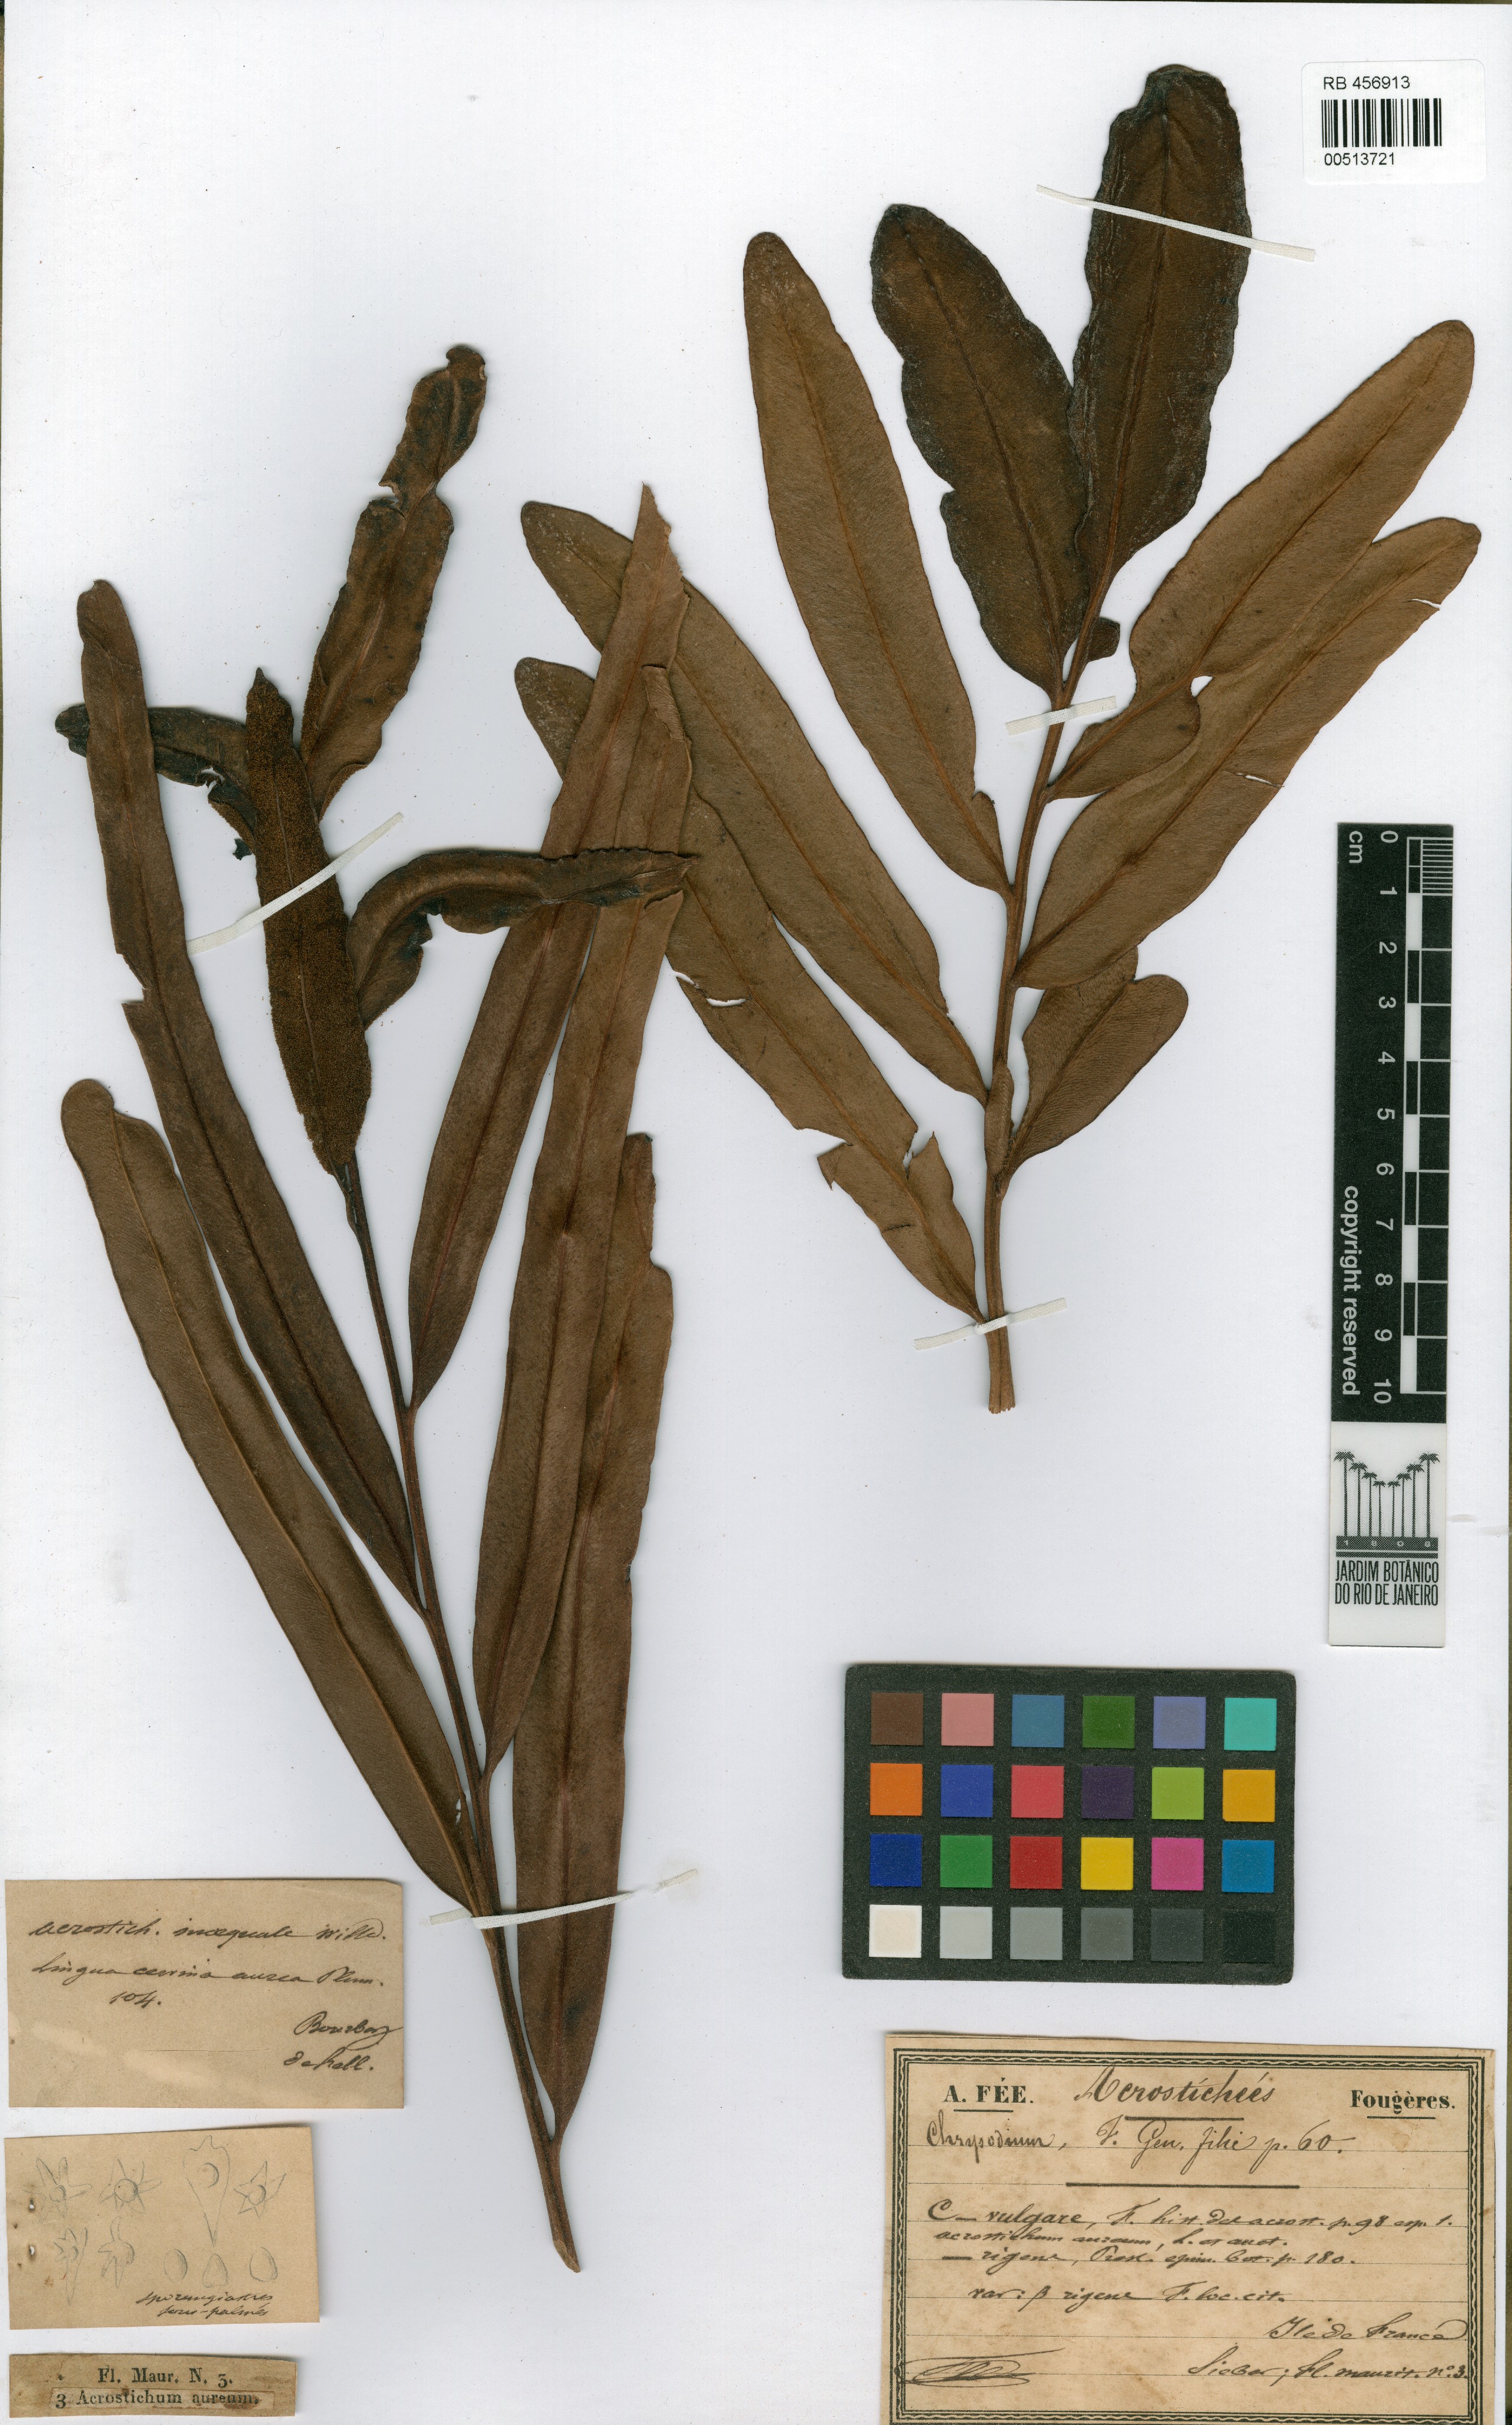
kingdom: Plantae
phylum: Tracheophyta
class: Polypodiopsida
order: Polypodiales
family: Pteridaceae
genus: Acrostichum
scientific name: Acrostichum aureum
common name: Leather fern
